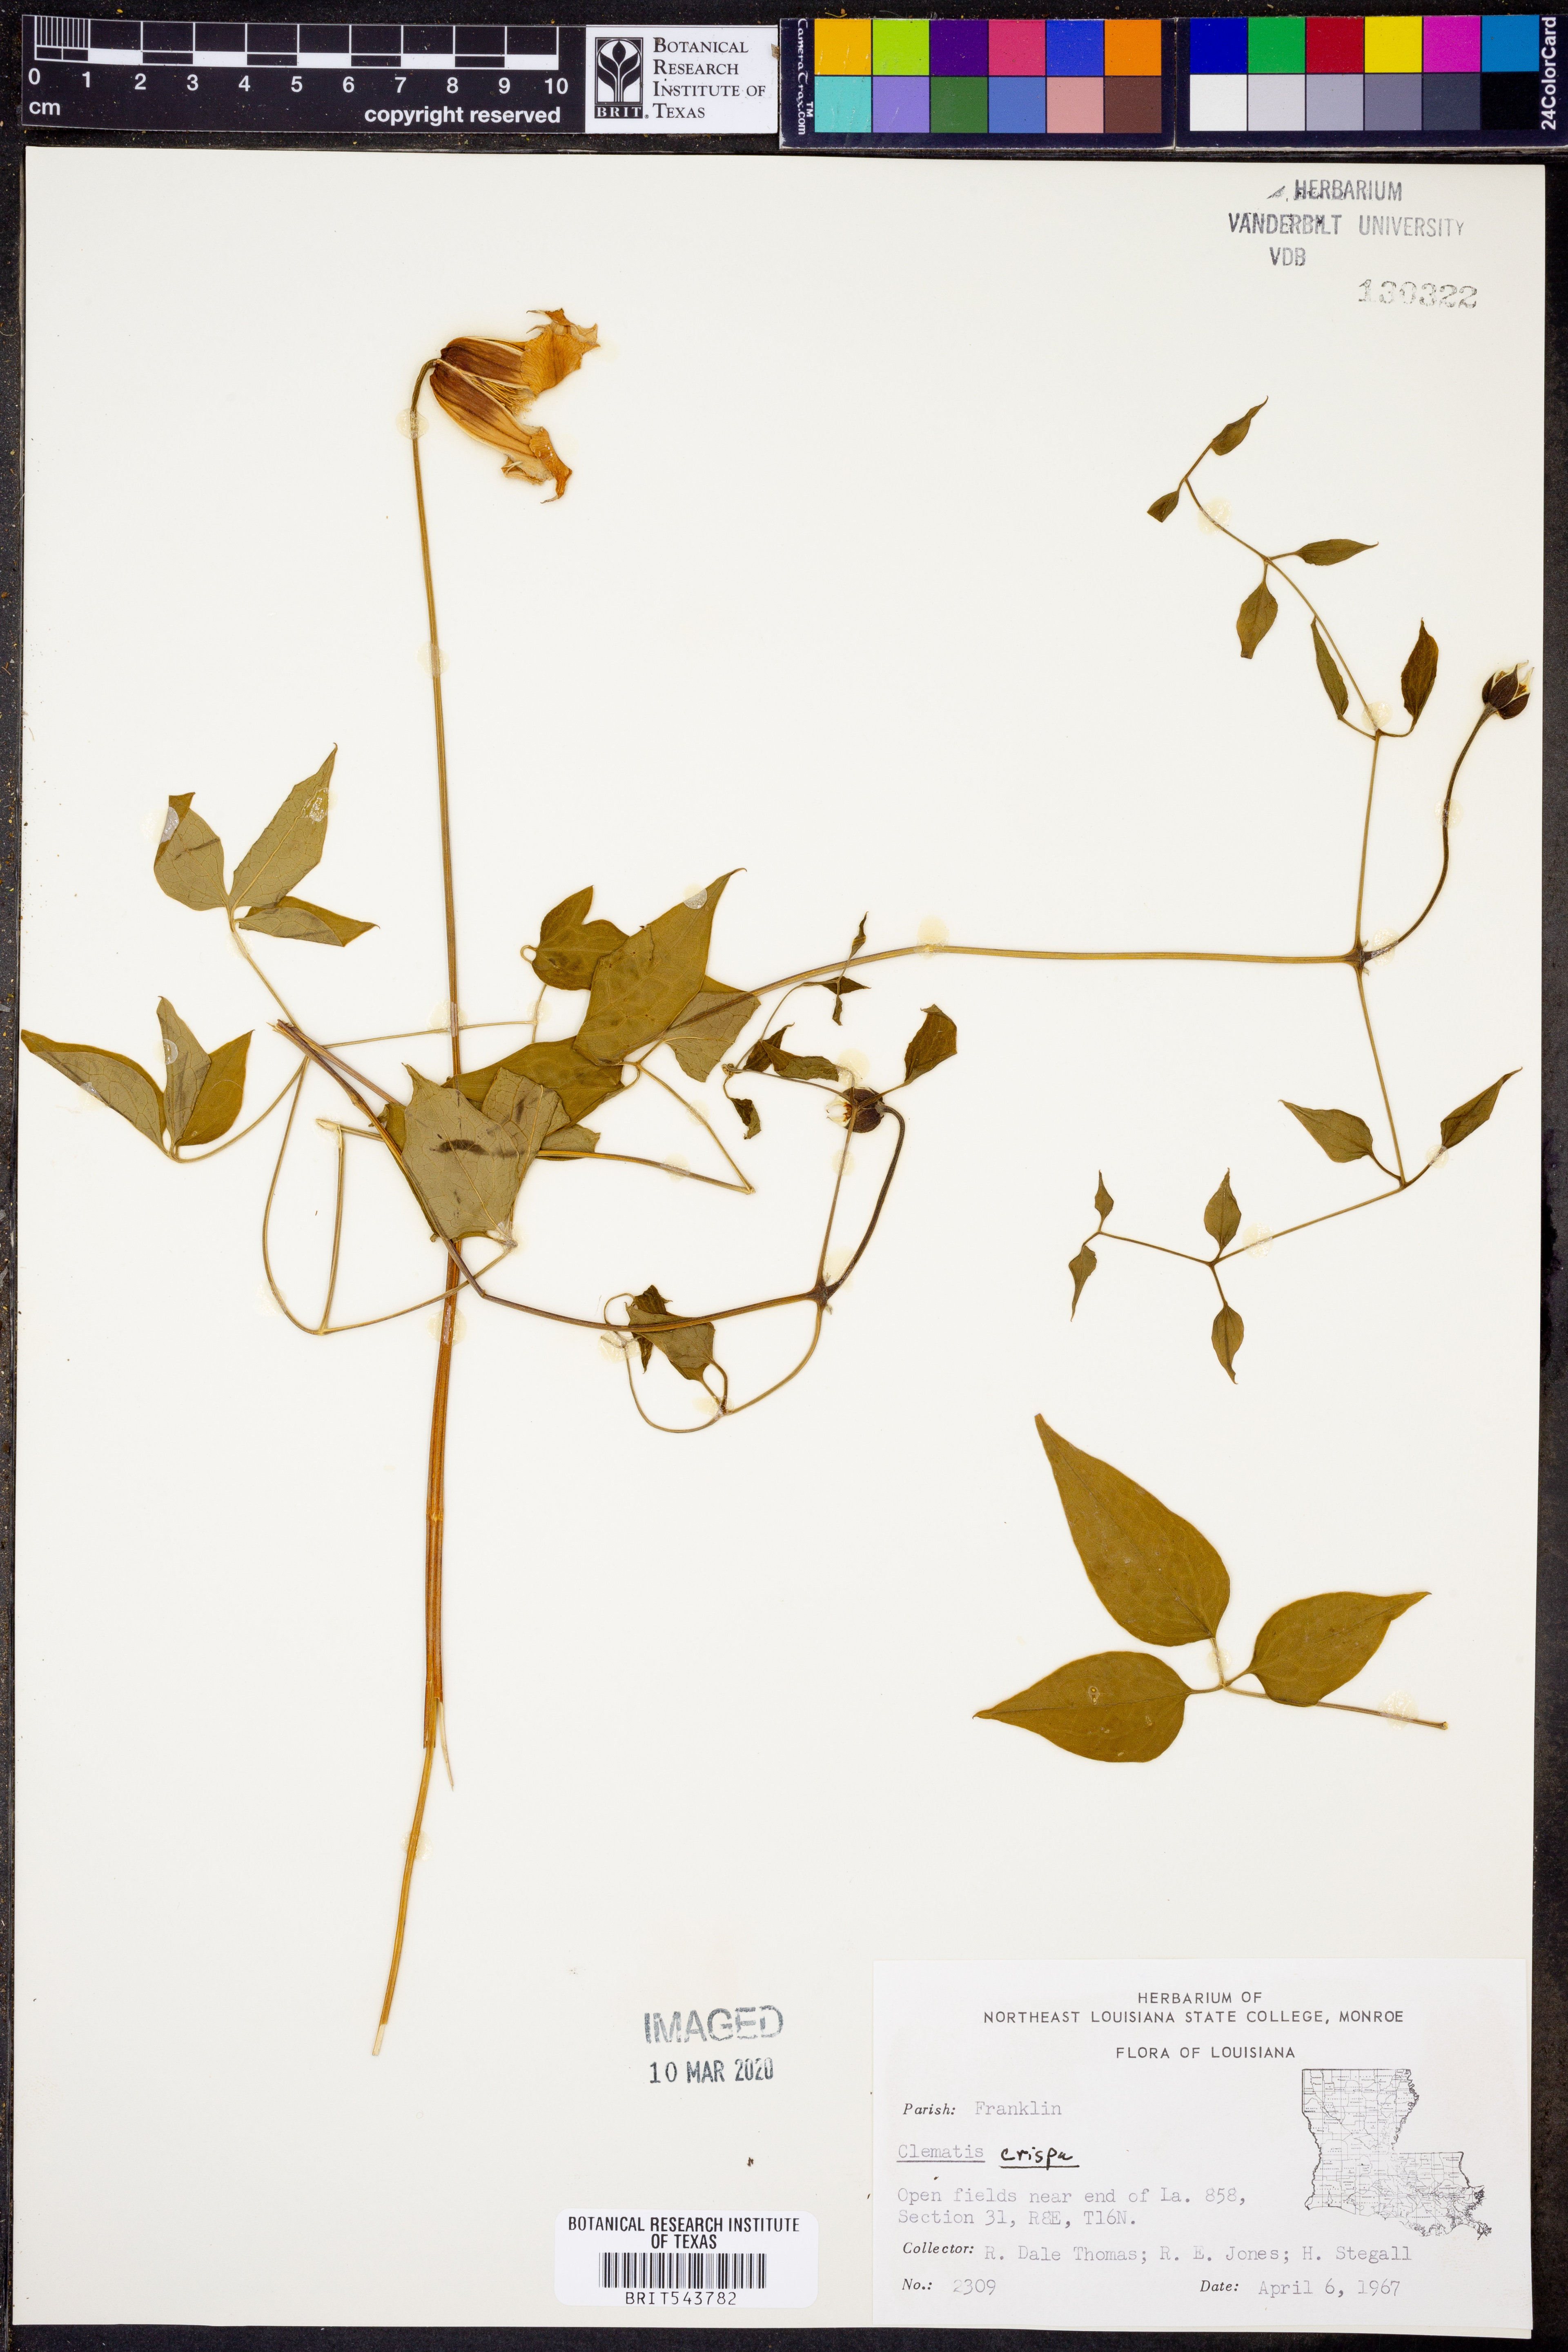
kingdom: Plantae
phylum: Tracheophyta
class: Magnoliopsida
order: Ranunculales
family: Ranunculaceae
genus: Clematis
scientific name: Clematis crispa
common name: Curly clematis
